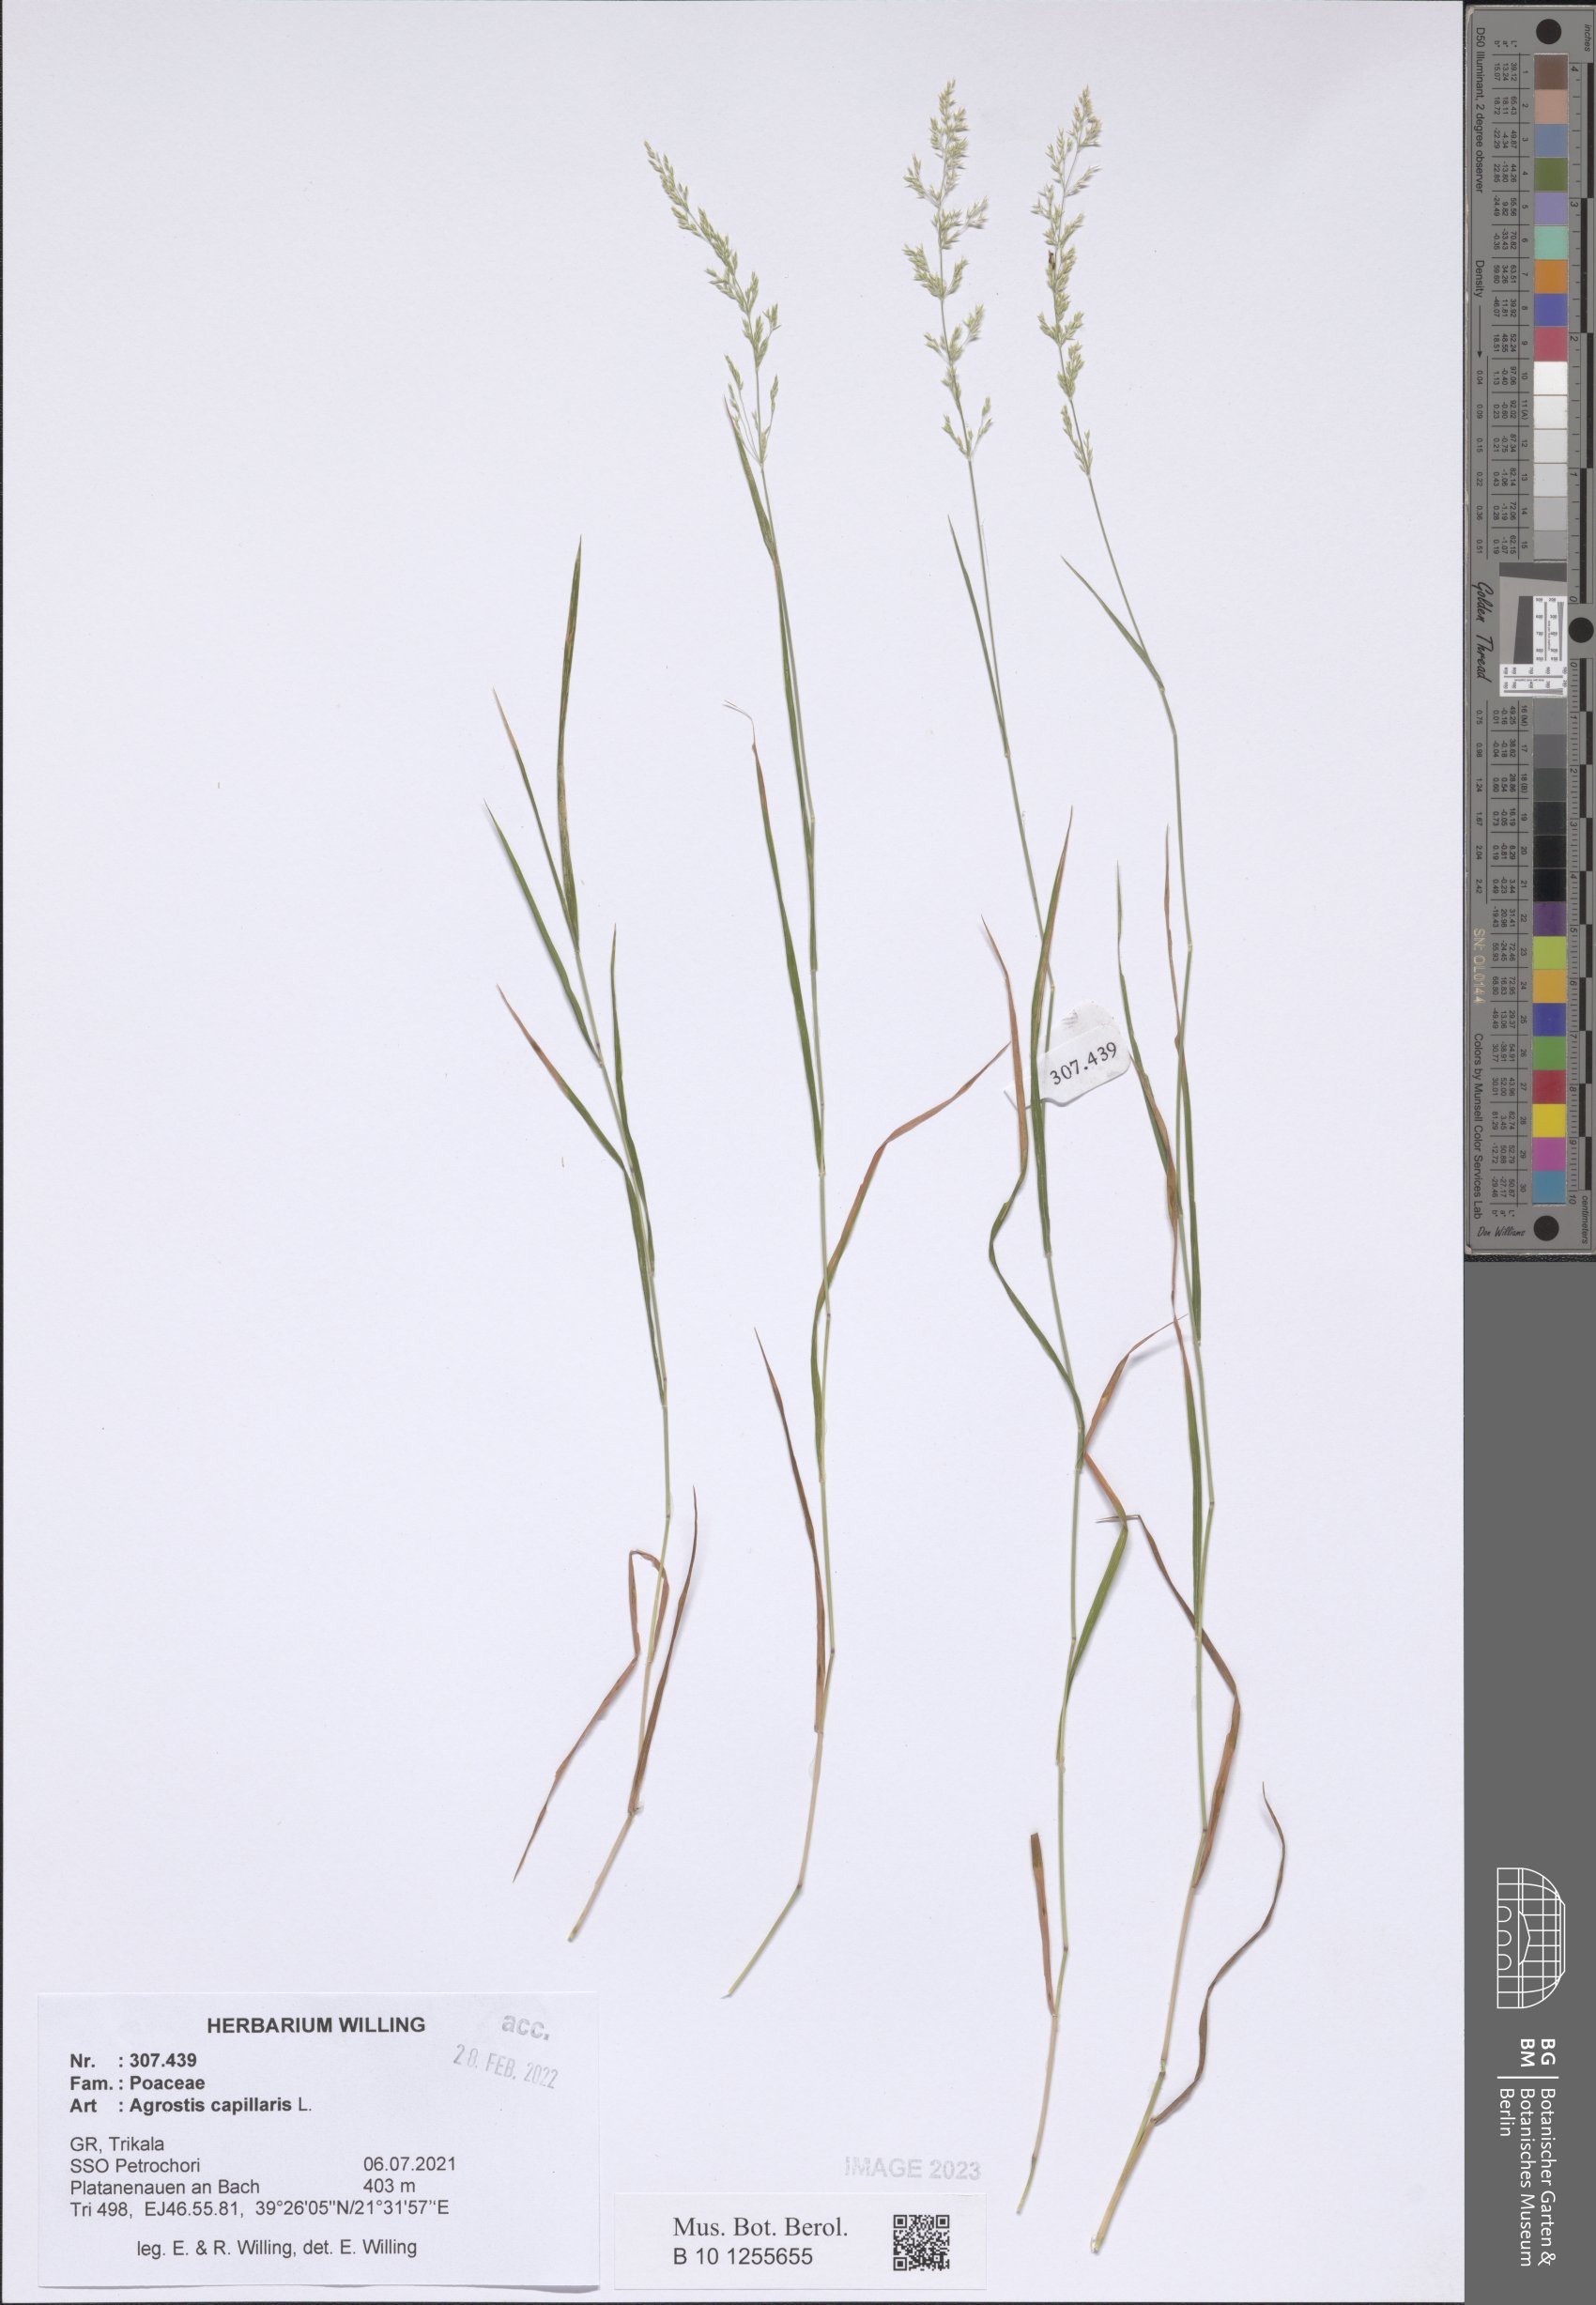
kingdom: Plantae
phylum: Tracheophyta
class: Liliopsida
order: Poales
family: Poaceae
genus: Agrostis
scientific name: Agrostis capillaris
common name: Colonial bentgrass
